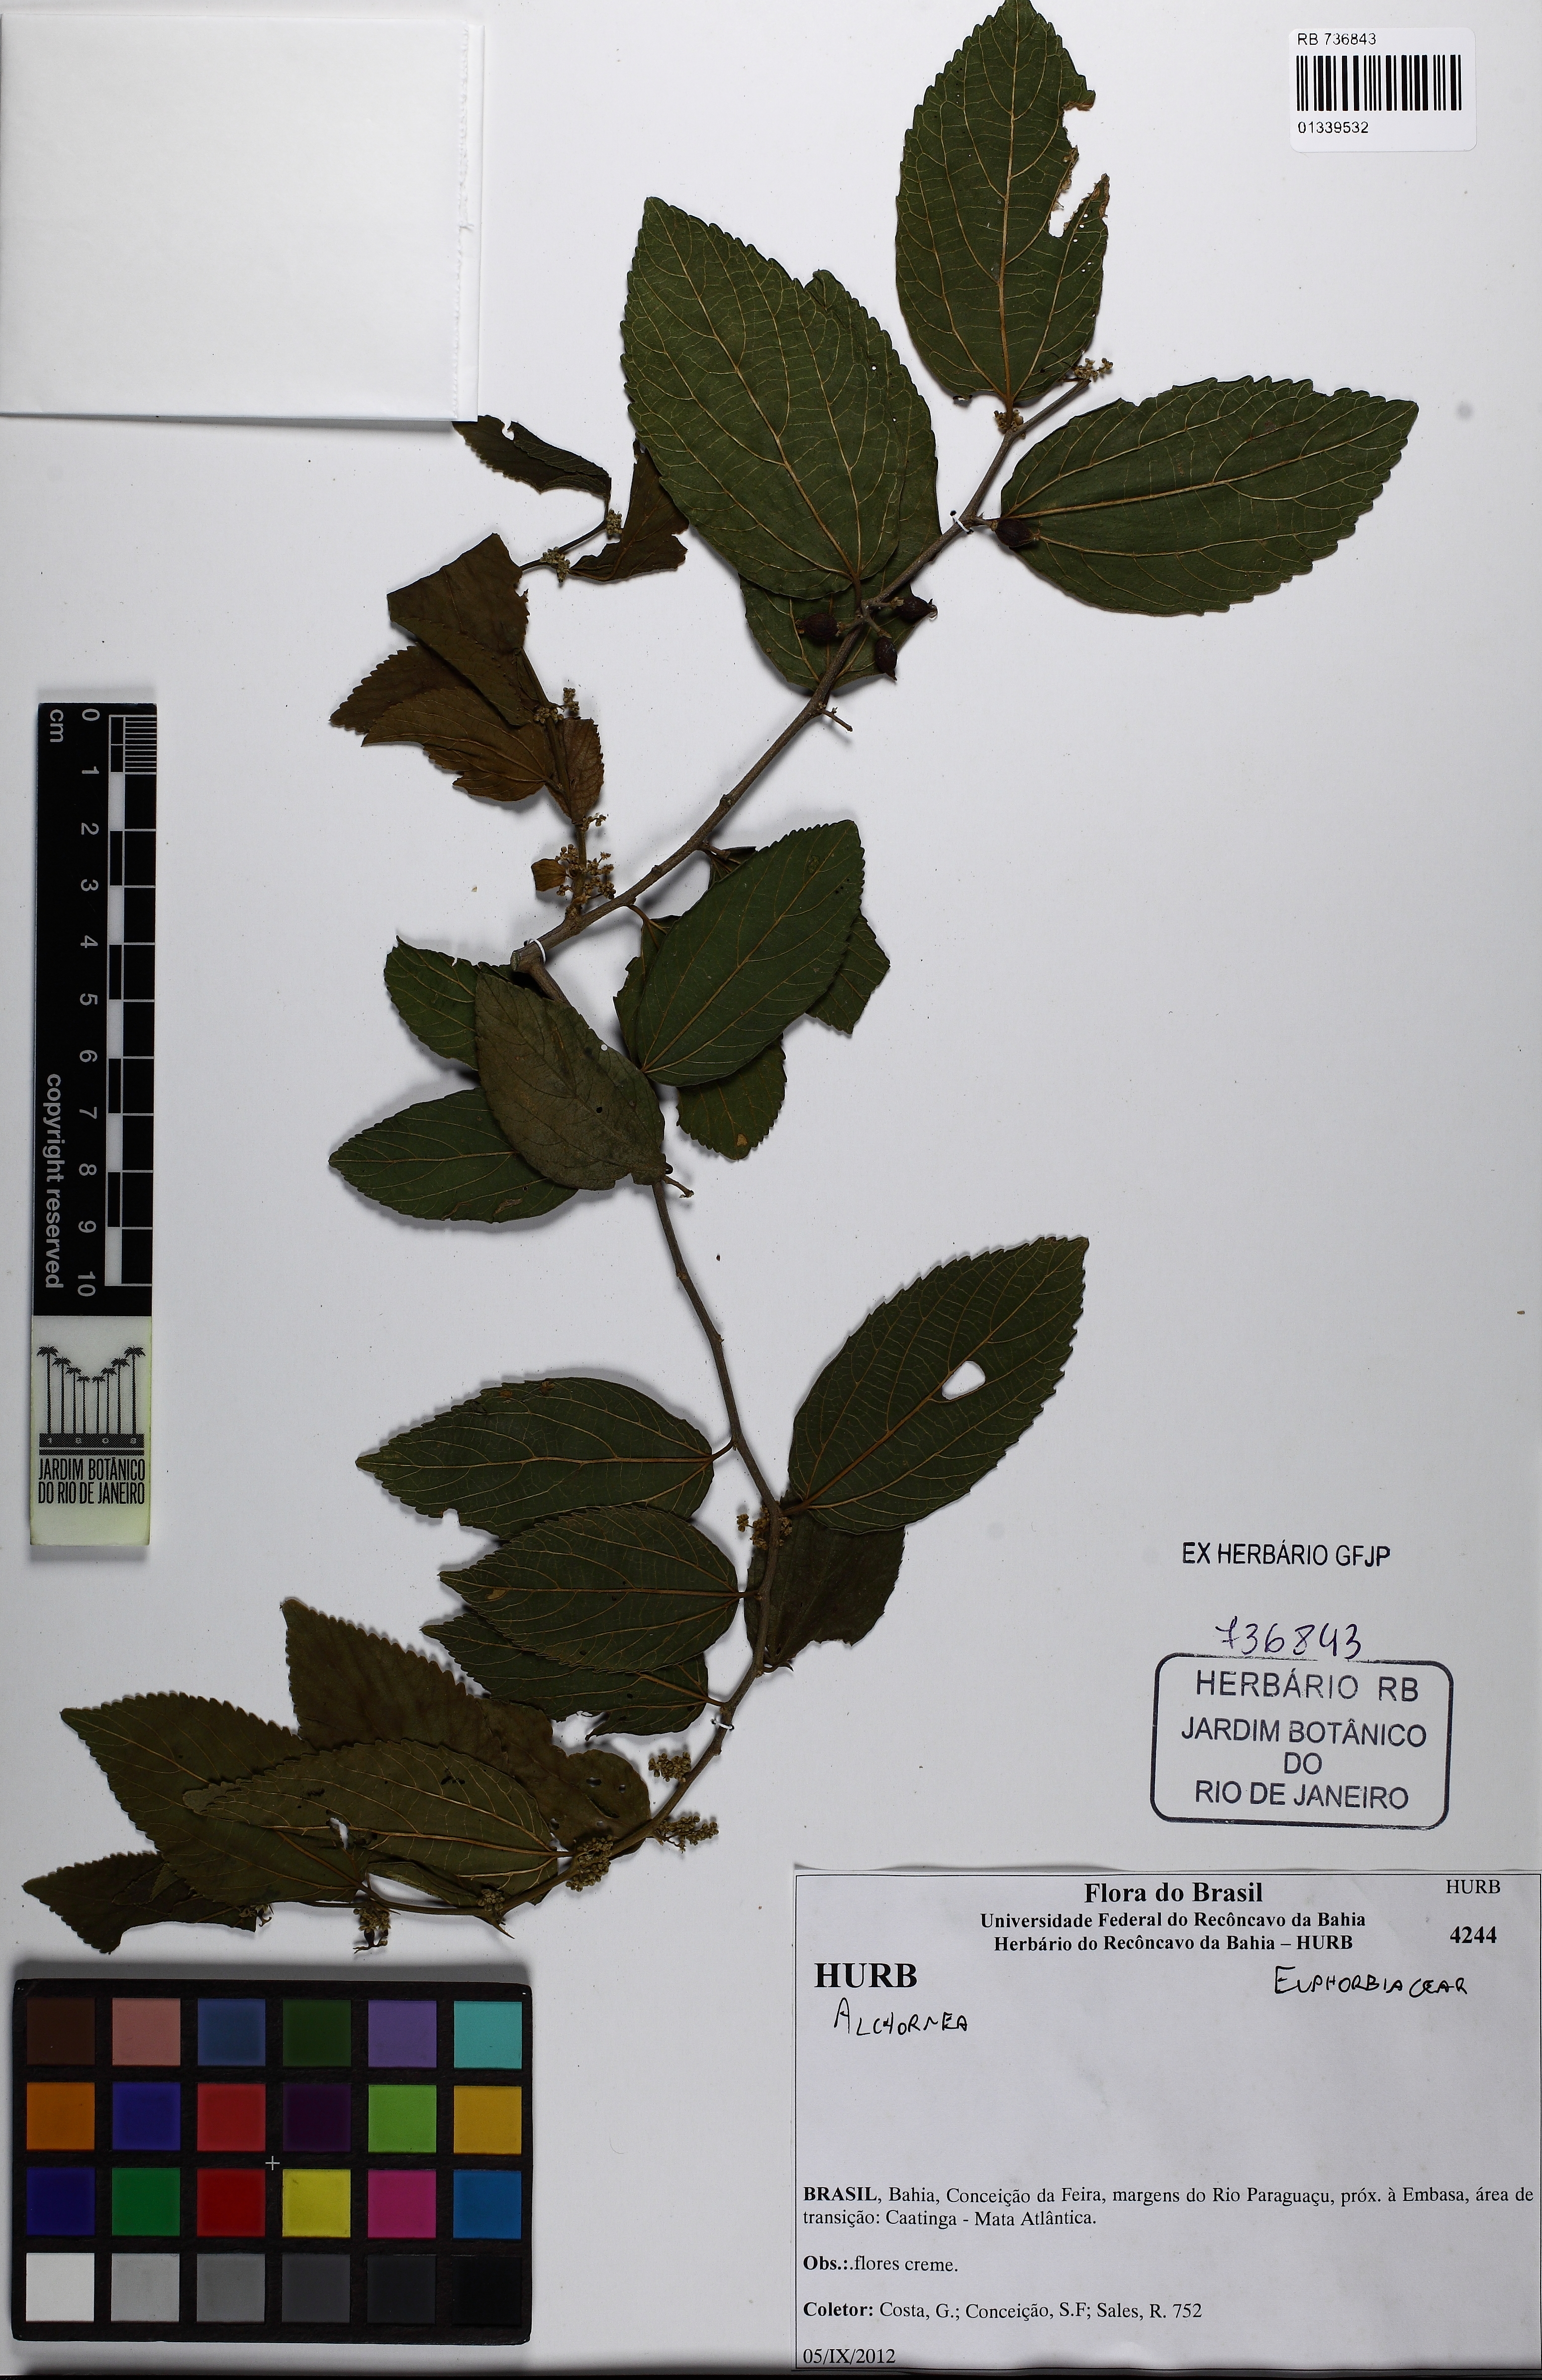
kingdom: Plantae
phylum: Tracheophyta
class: Magnoliopsida
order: Malpighiales
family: Euphorbiaceae
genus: Alchornea
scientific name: Alchornea
